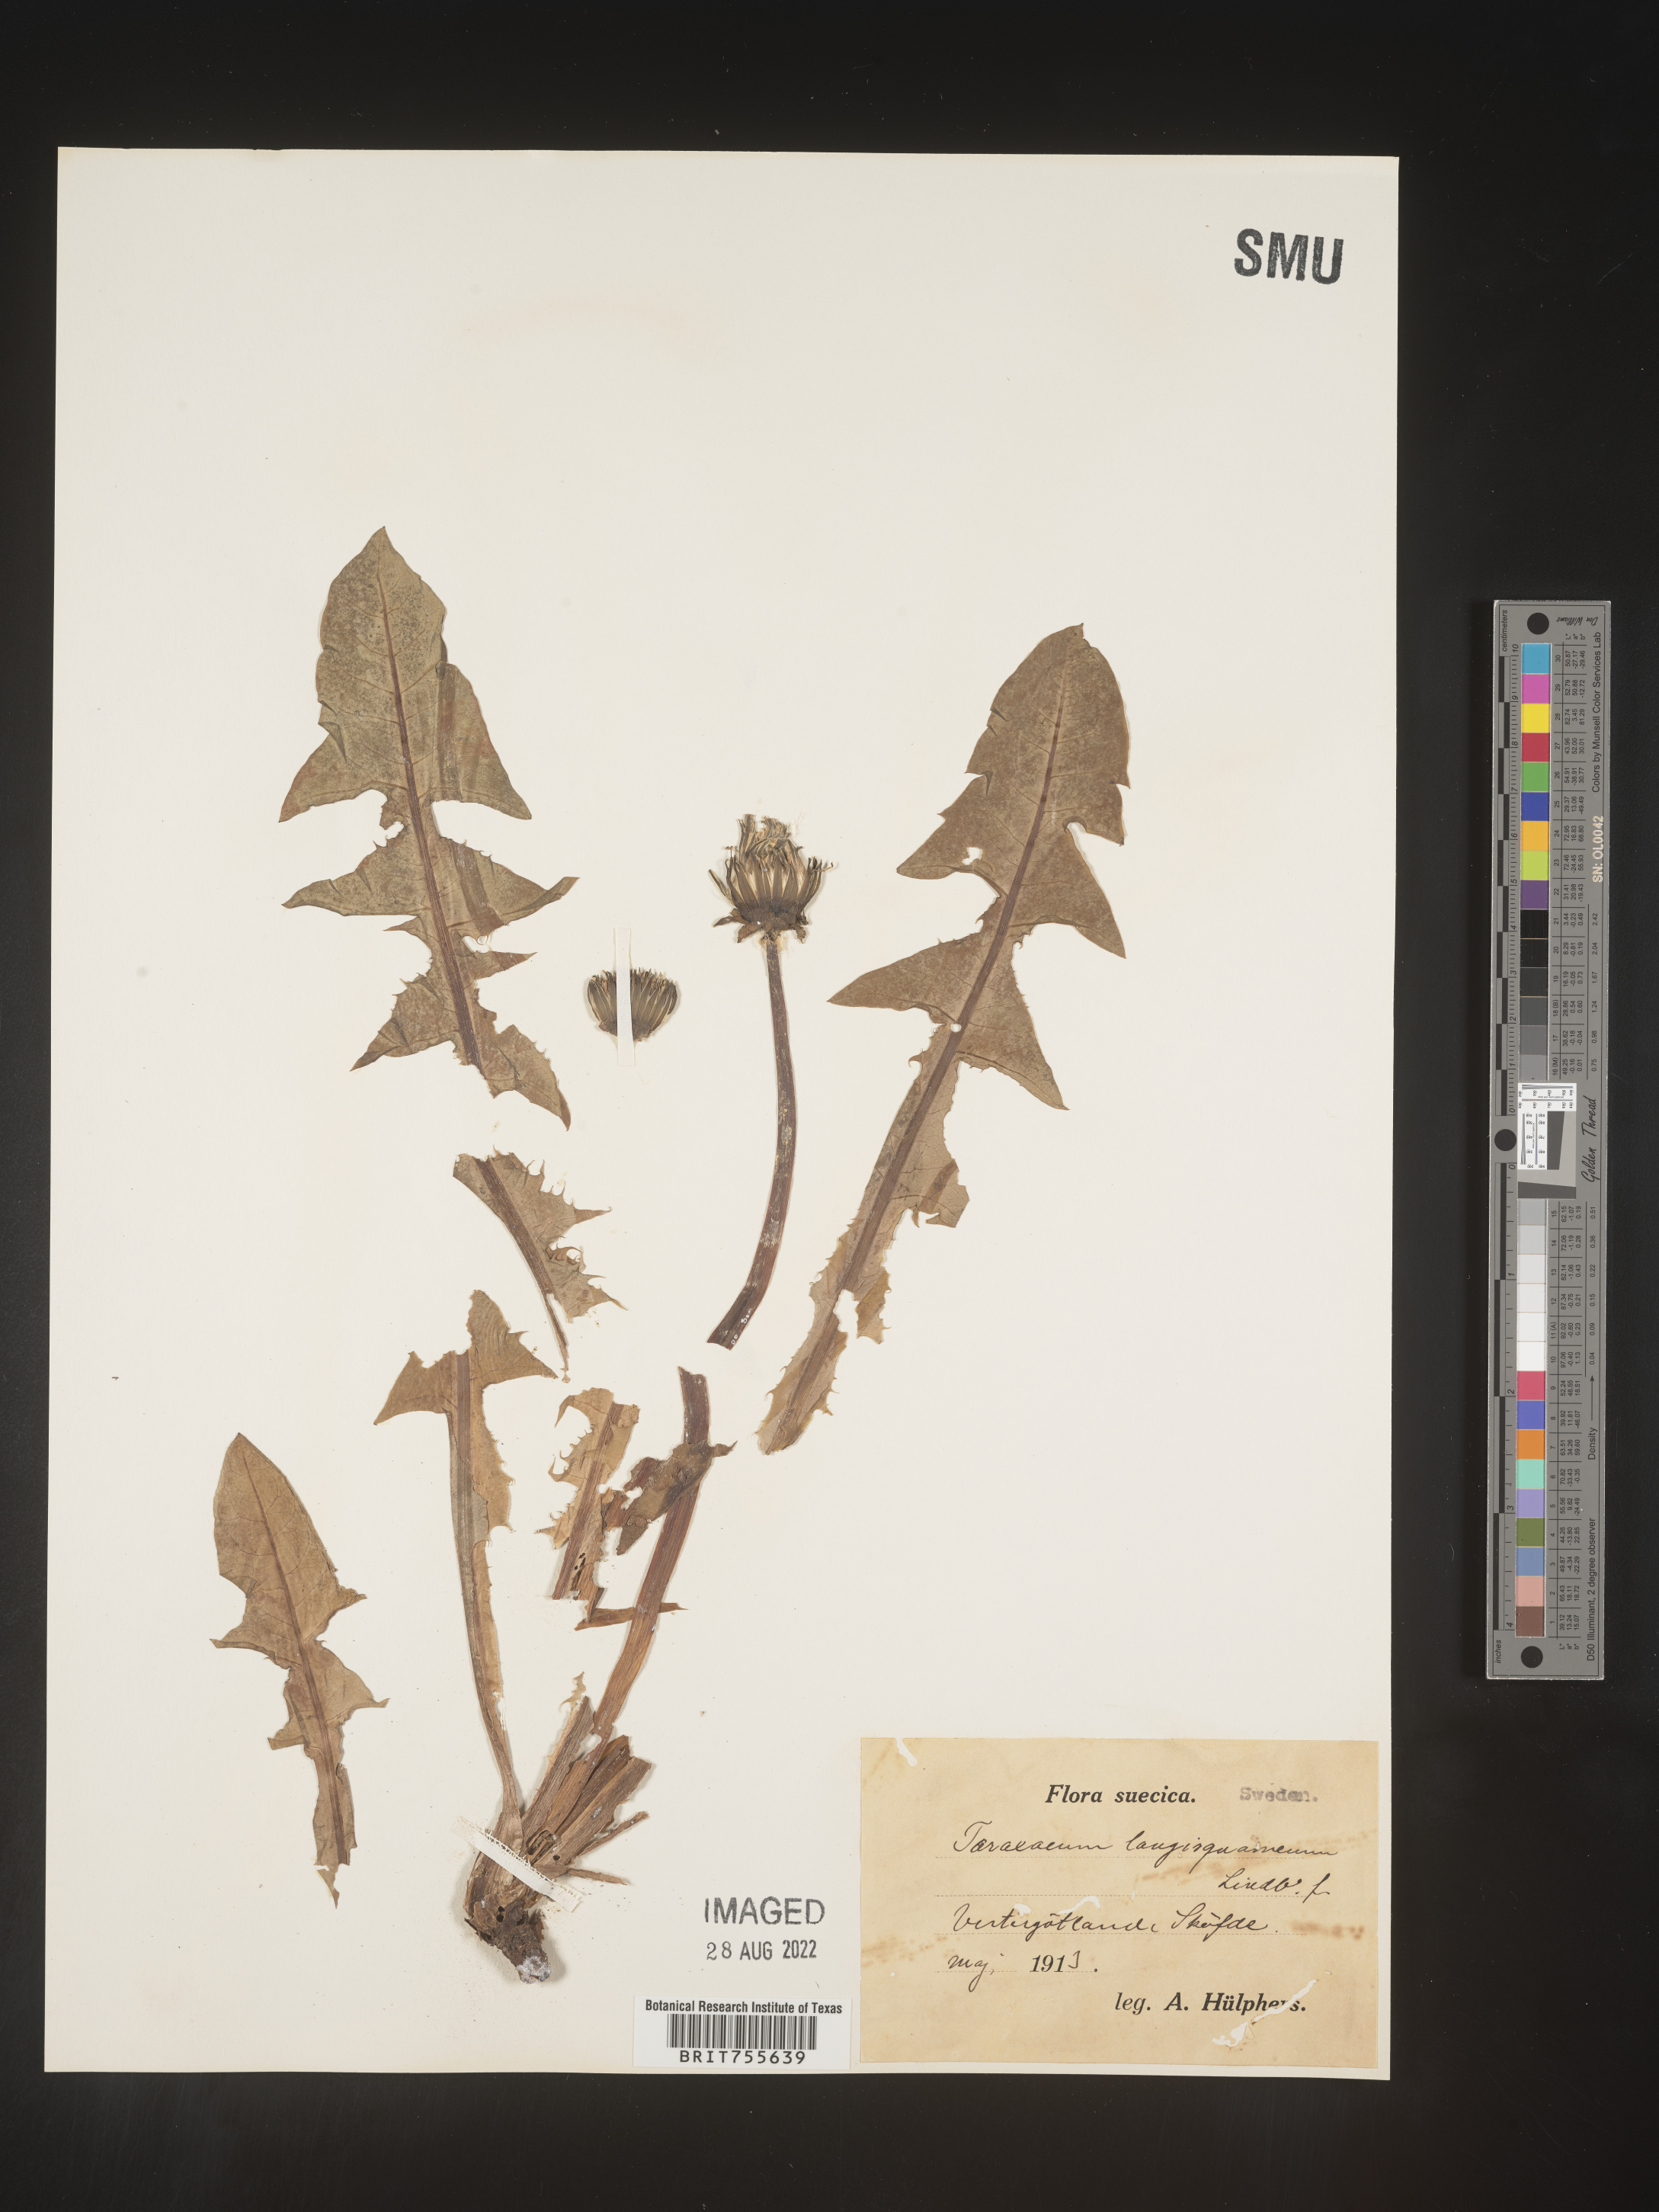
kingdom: Plantae
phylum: Tracheophyta
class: Magnoliopsida
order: Asterales
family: Asteraceae
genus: Taraxacum
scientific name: Taraxacum
